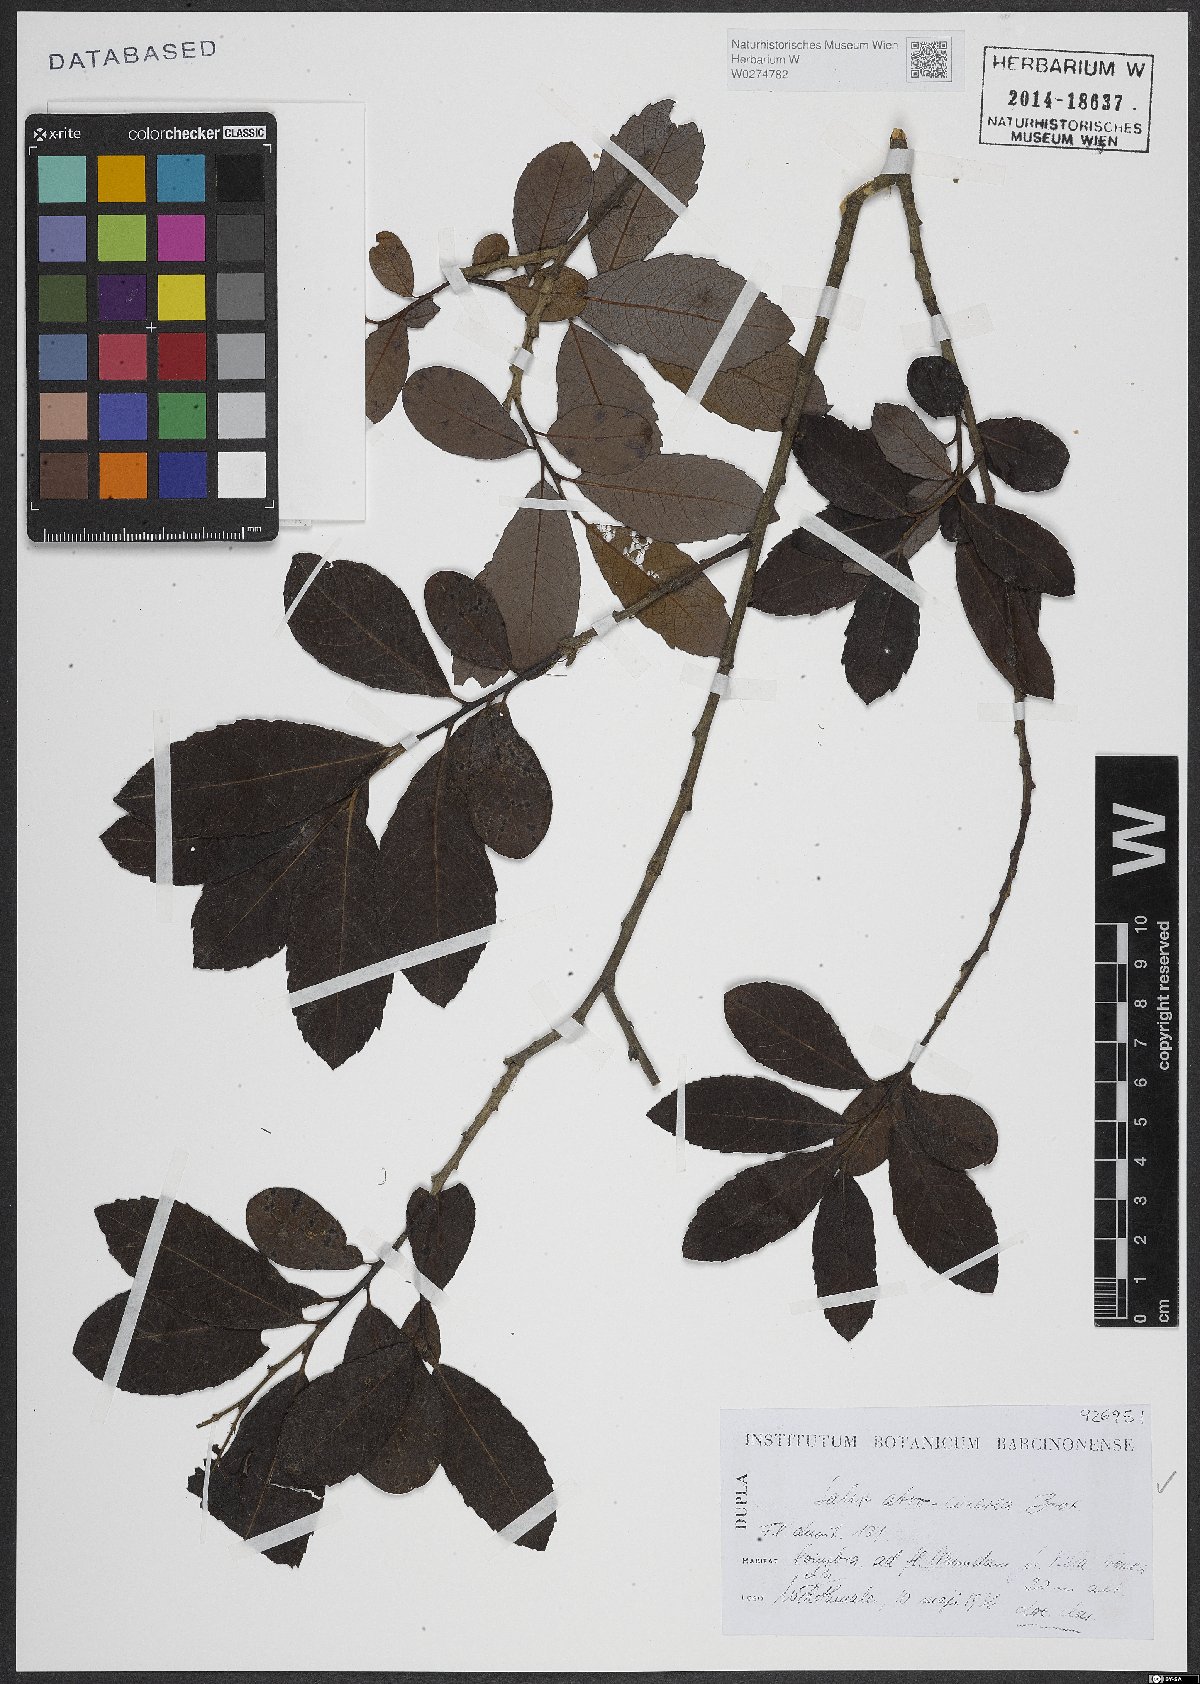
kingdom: Plantae
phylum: Tracheophyta
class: Magnoliopsida
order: Malpighiales
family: Salicaceae
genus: Salix
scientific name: Salix atrocinerea
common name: Rusty willow
